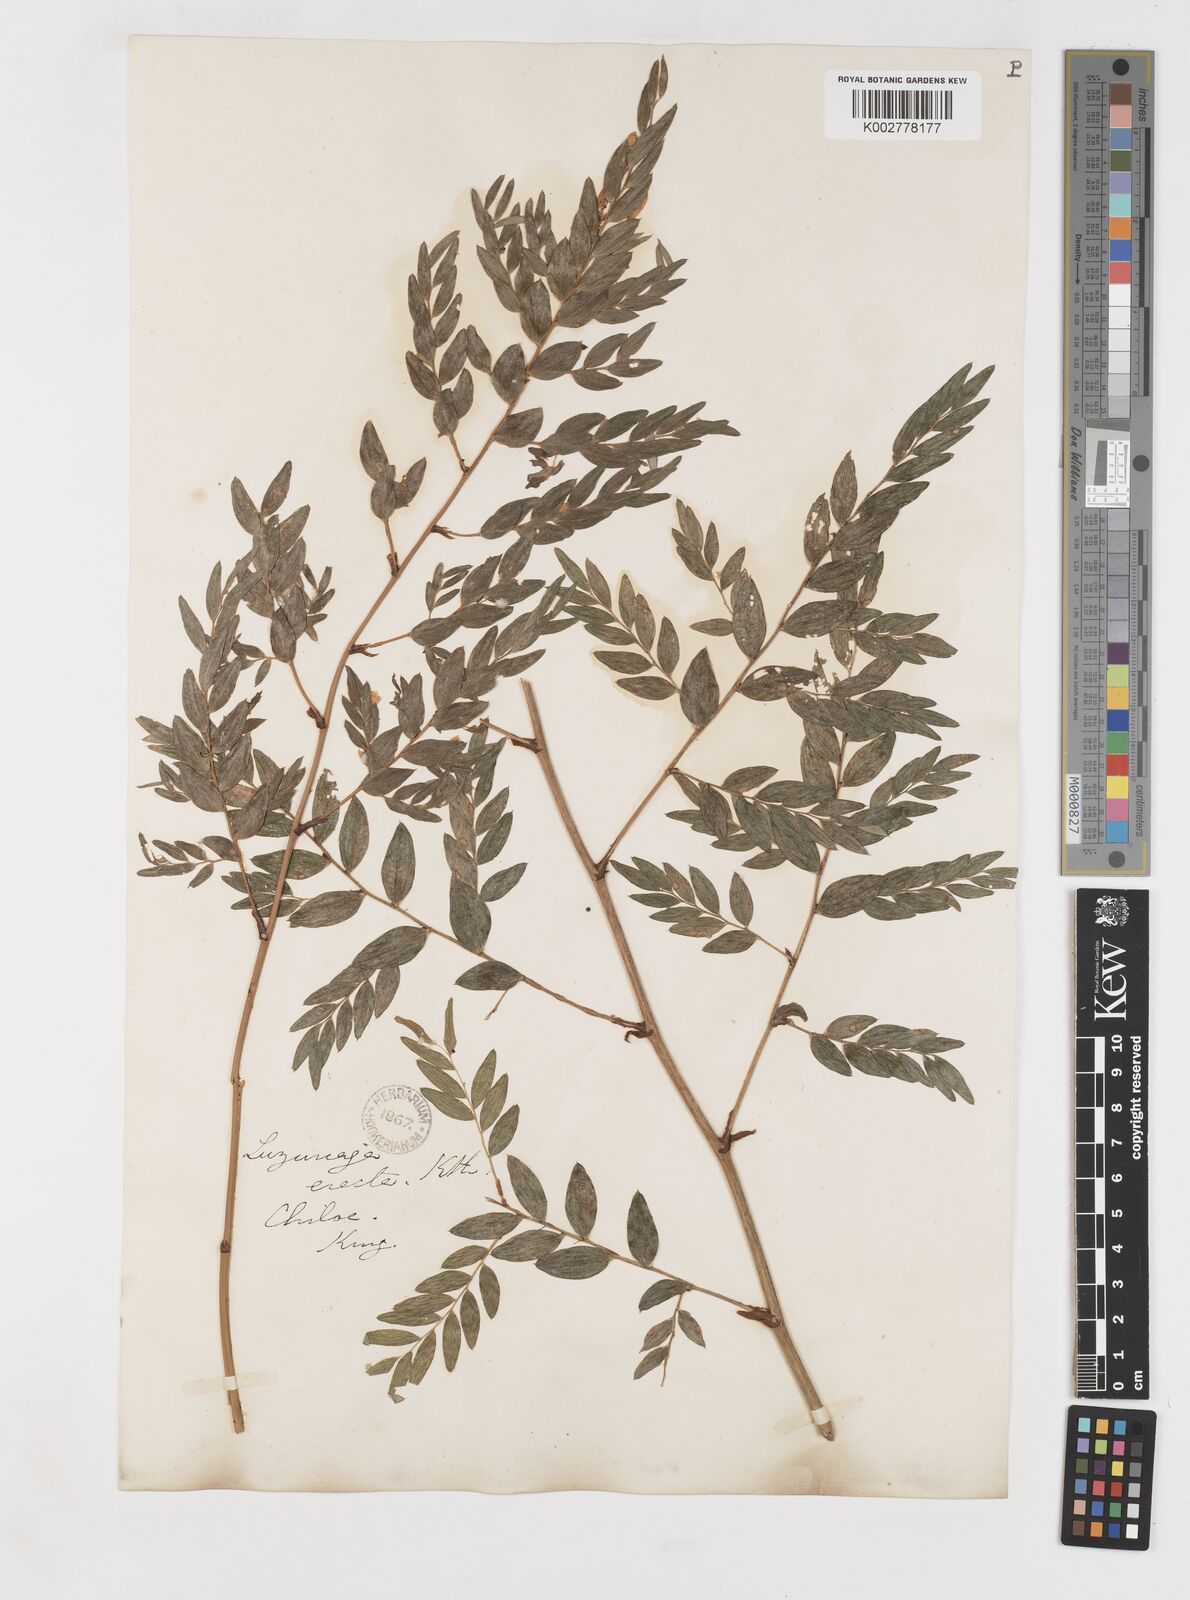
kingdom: Plantae
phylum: Tracheophyta
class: Liliopsida
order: Liliales
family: Alstroemeriaceae
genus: Luzuriaga
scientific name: Luzuriaga polyphylla
